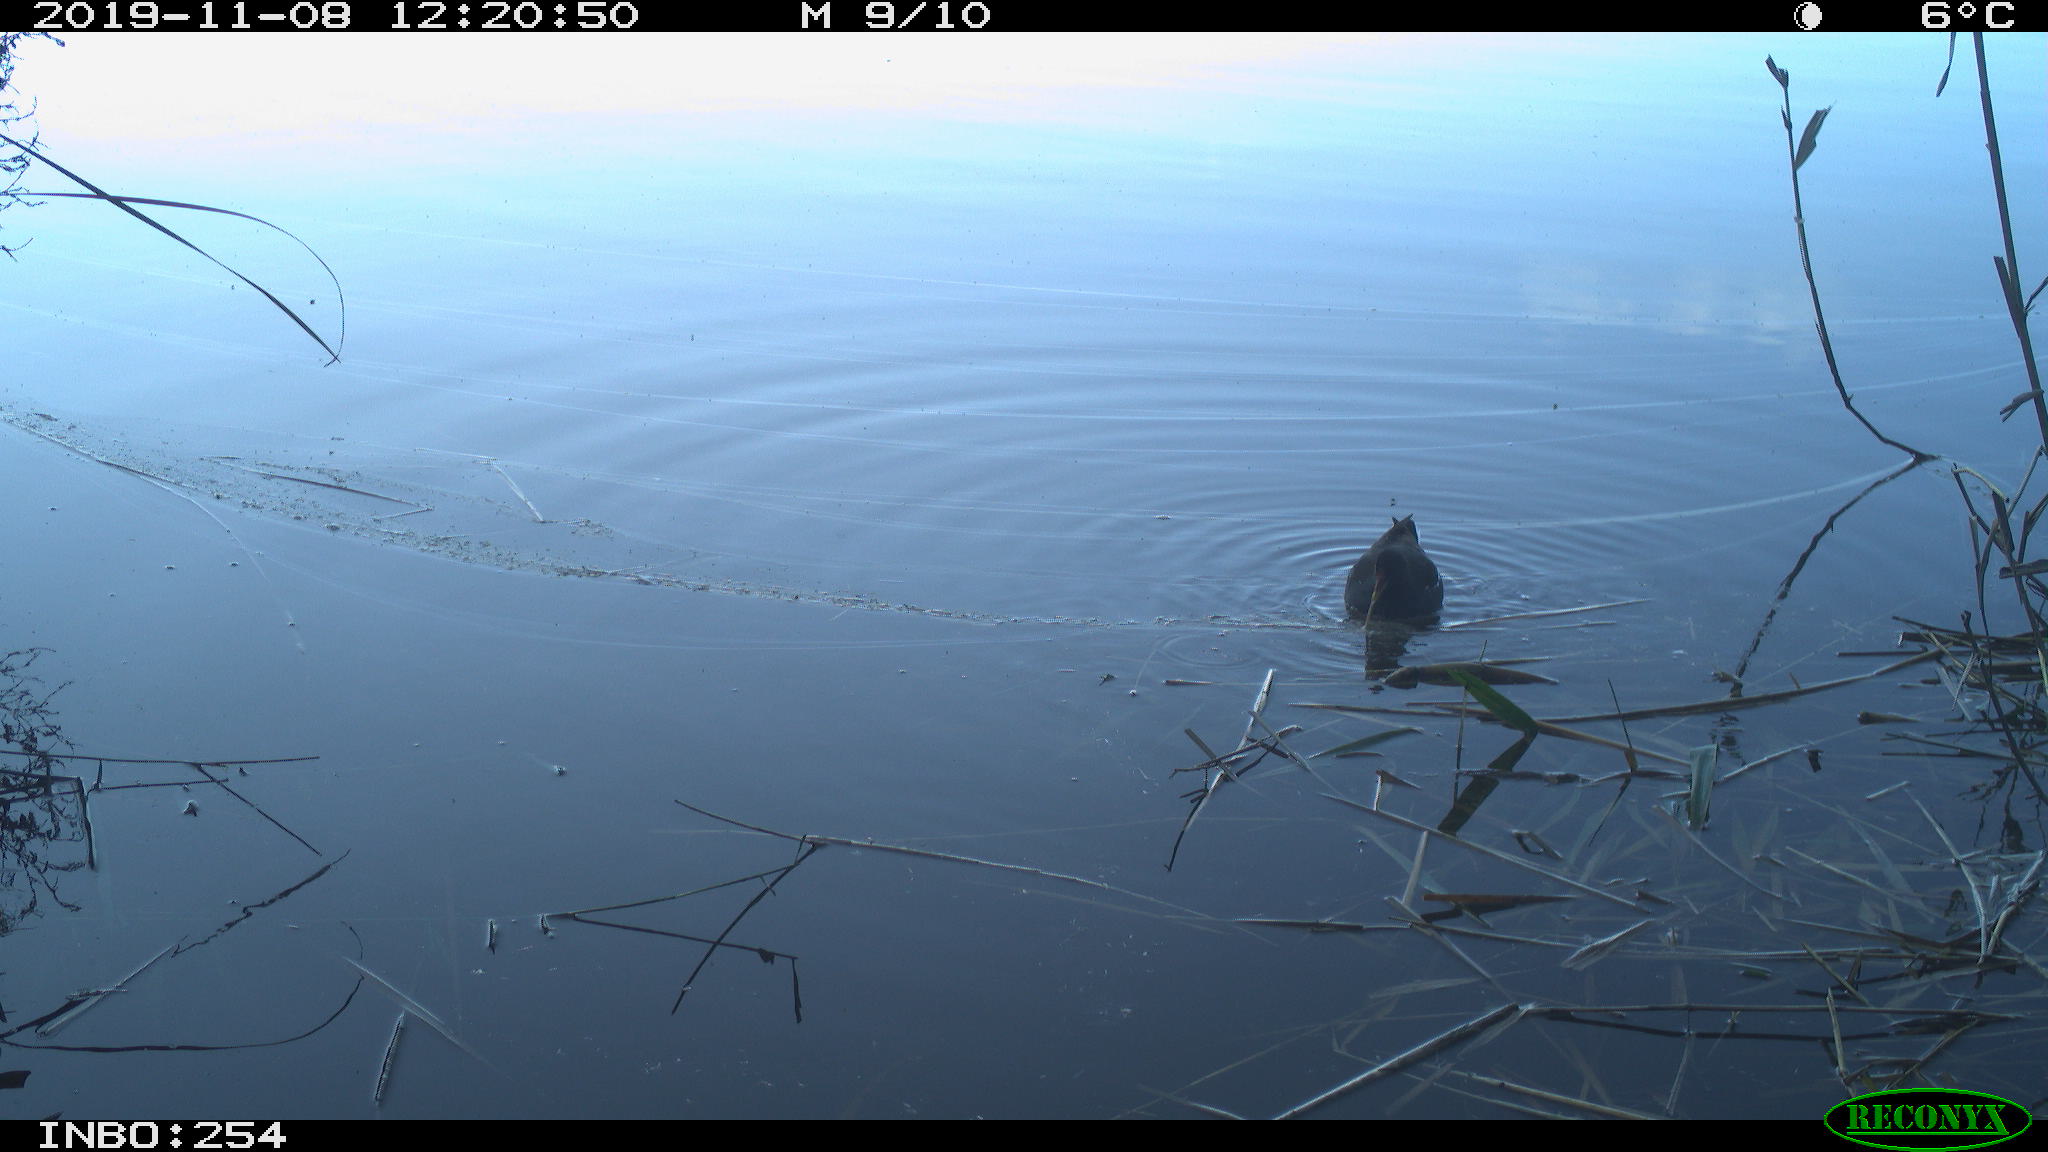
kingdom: Animalia
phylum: Chordata
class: Aves
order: Gruiformes
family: Rallidae
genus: Gallinula
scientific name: Gallinula chloropus
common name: Common moorhen
